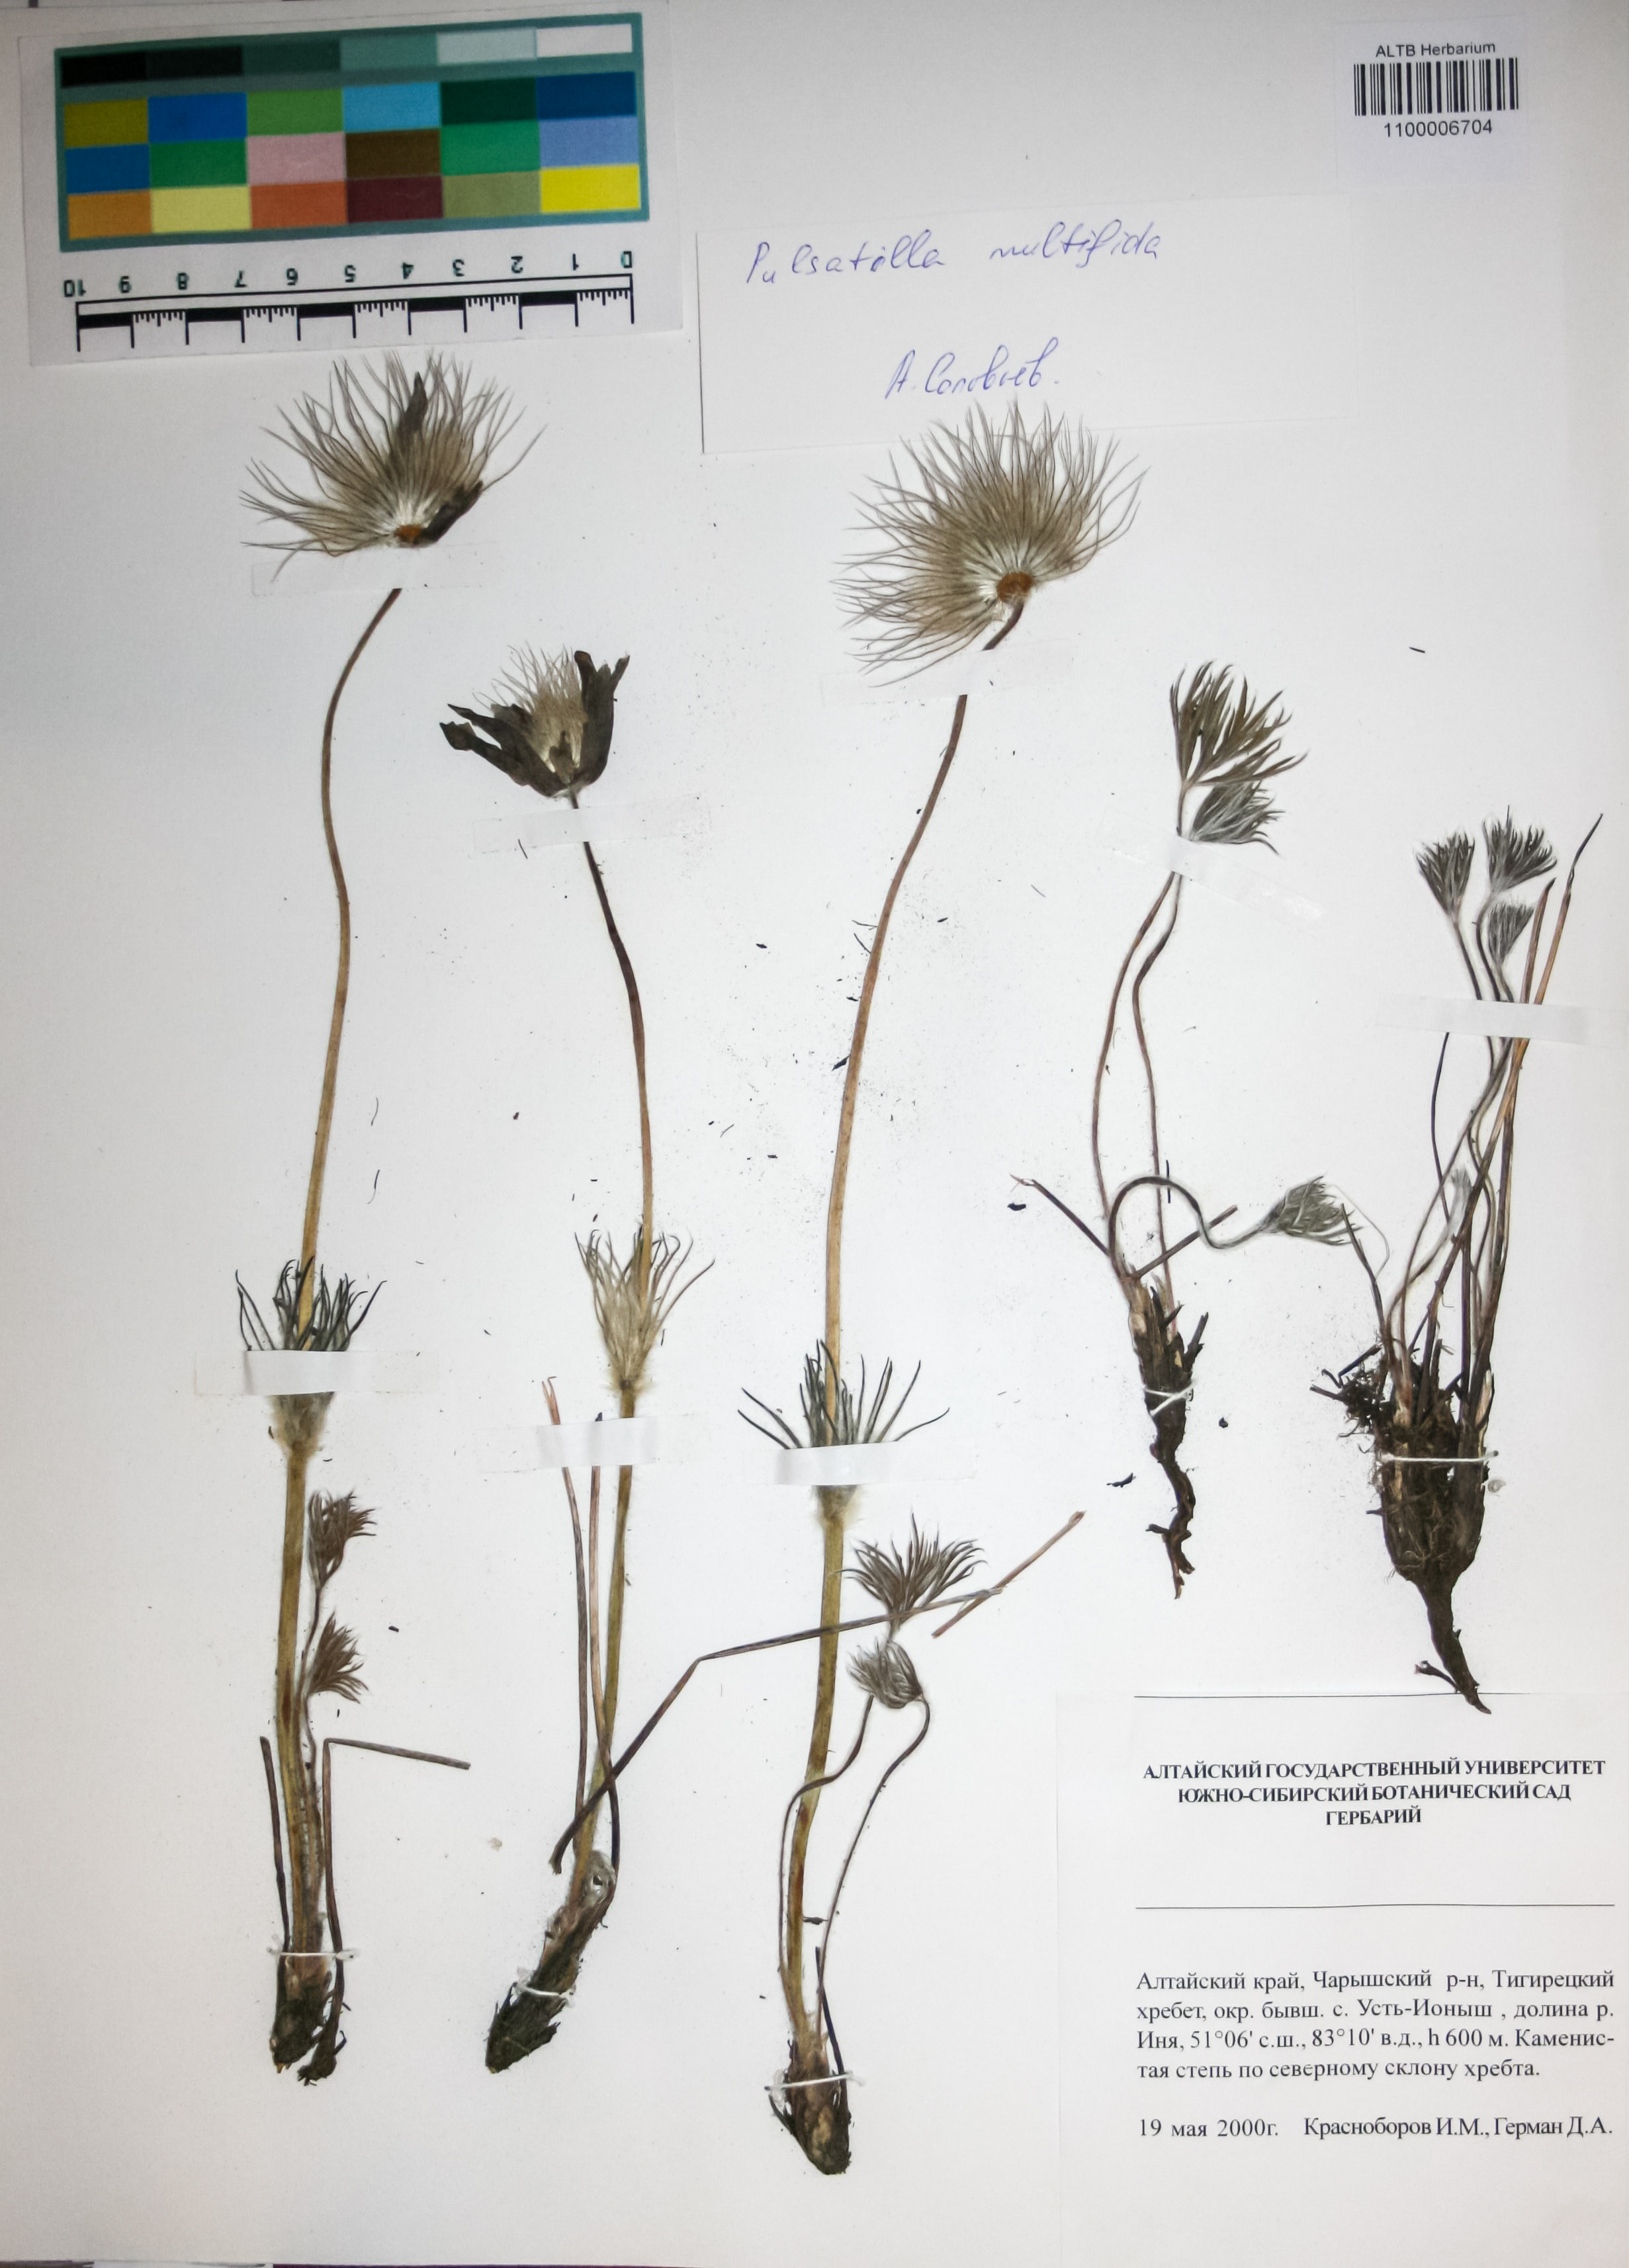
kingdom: Plantae
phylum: Tracheophyta
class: Magnoliopsida
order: Ranunculales
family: Ranunculaceae
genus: Pulsatilla
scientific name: Pulsatilla patens
